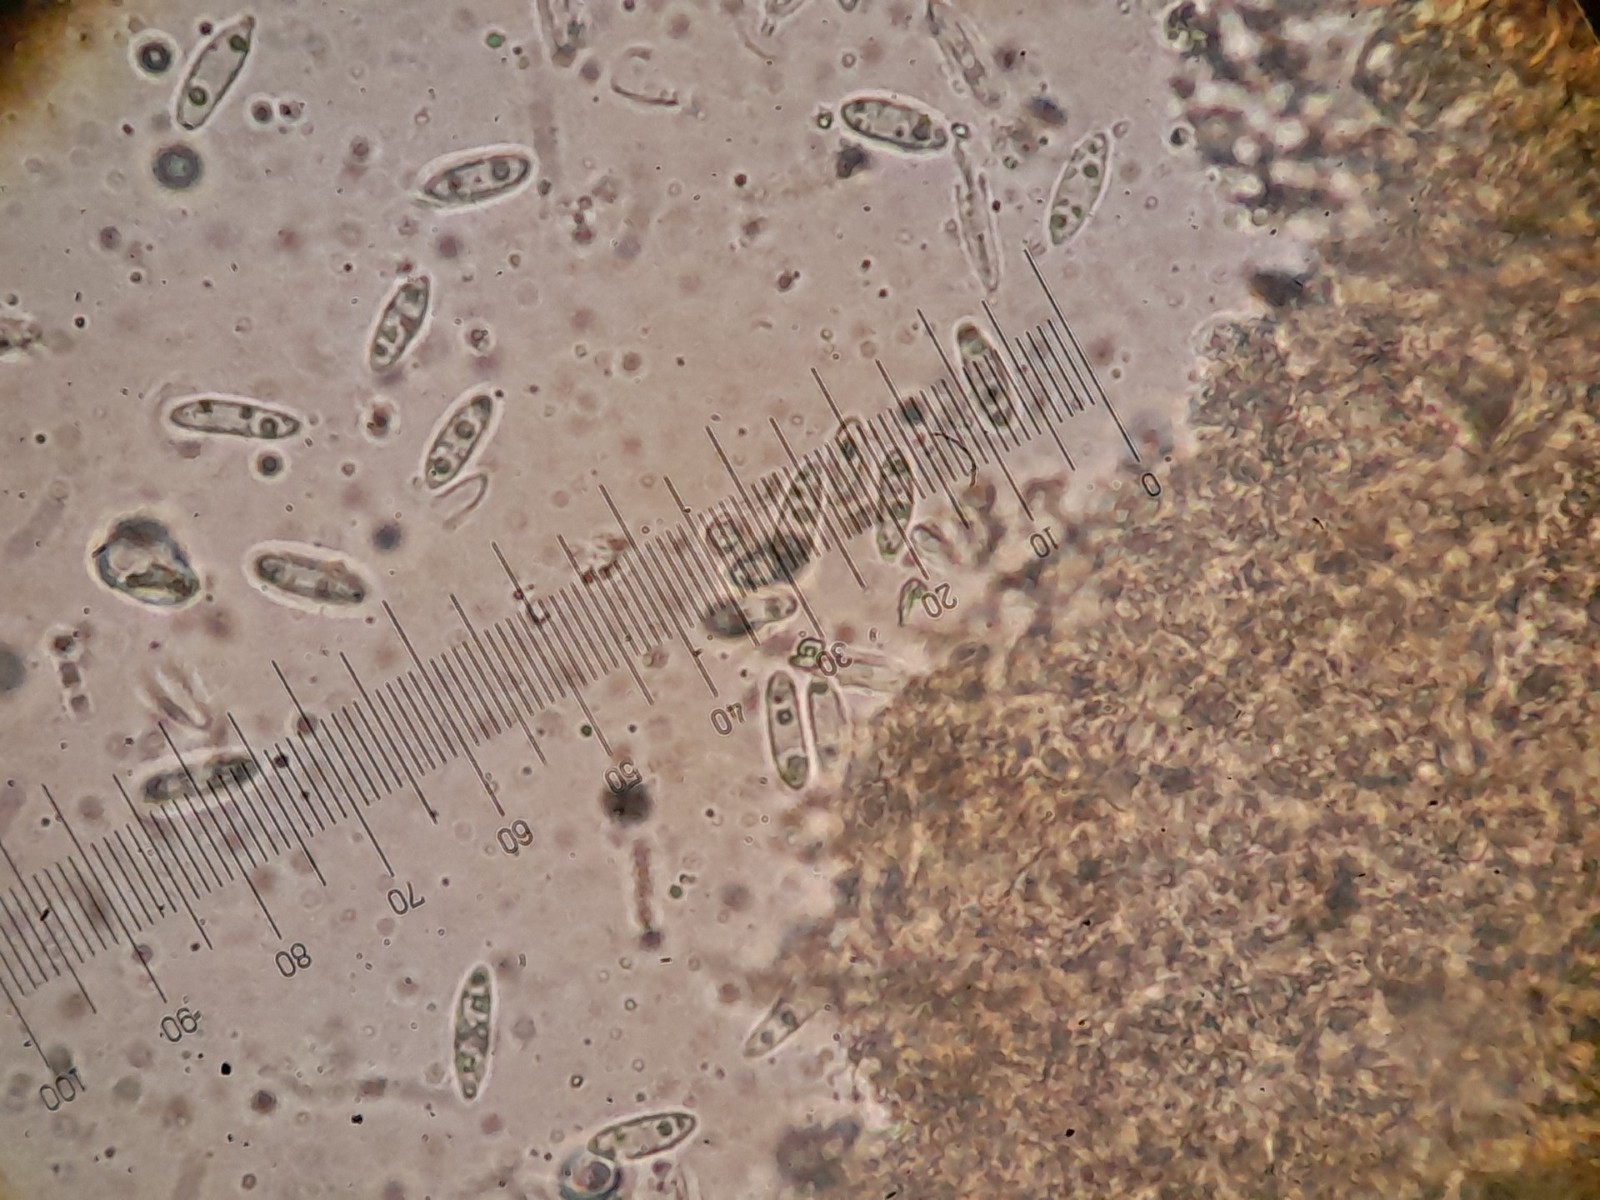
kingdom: Fungi
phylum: Ascomycota
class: Sordariomycetes
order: Diaporthales
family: Diaporthaceae
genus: Diaporthe
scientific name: Diaporthe oncostoma
